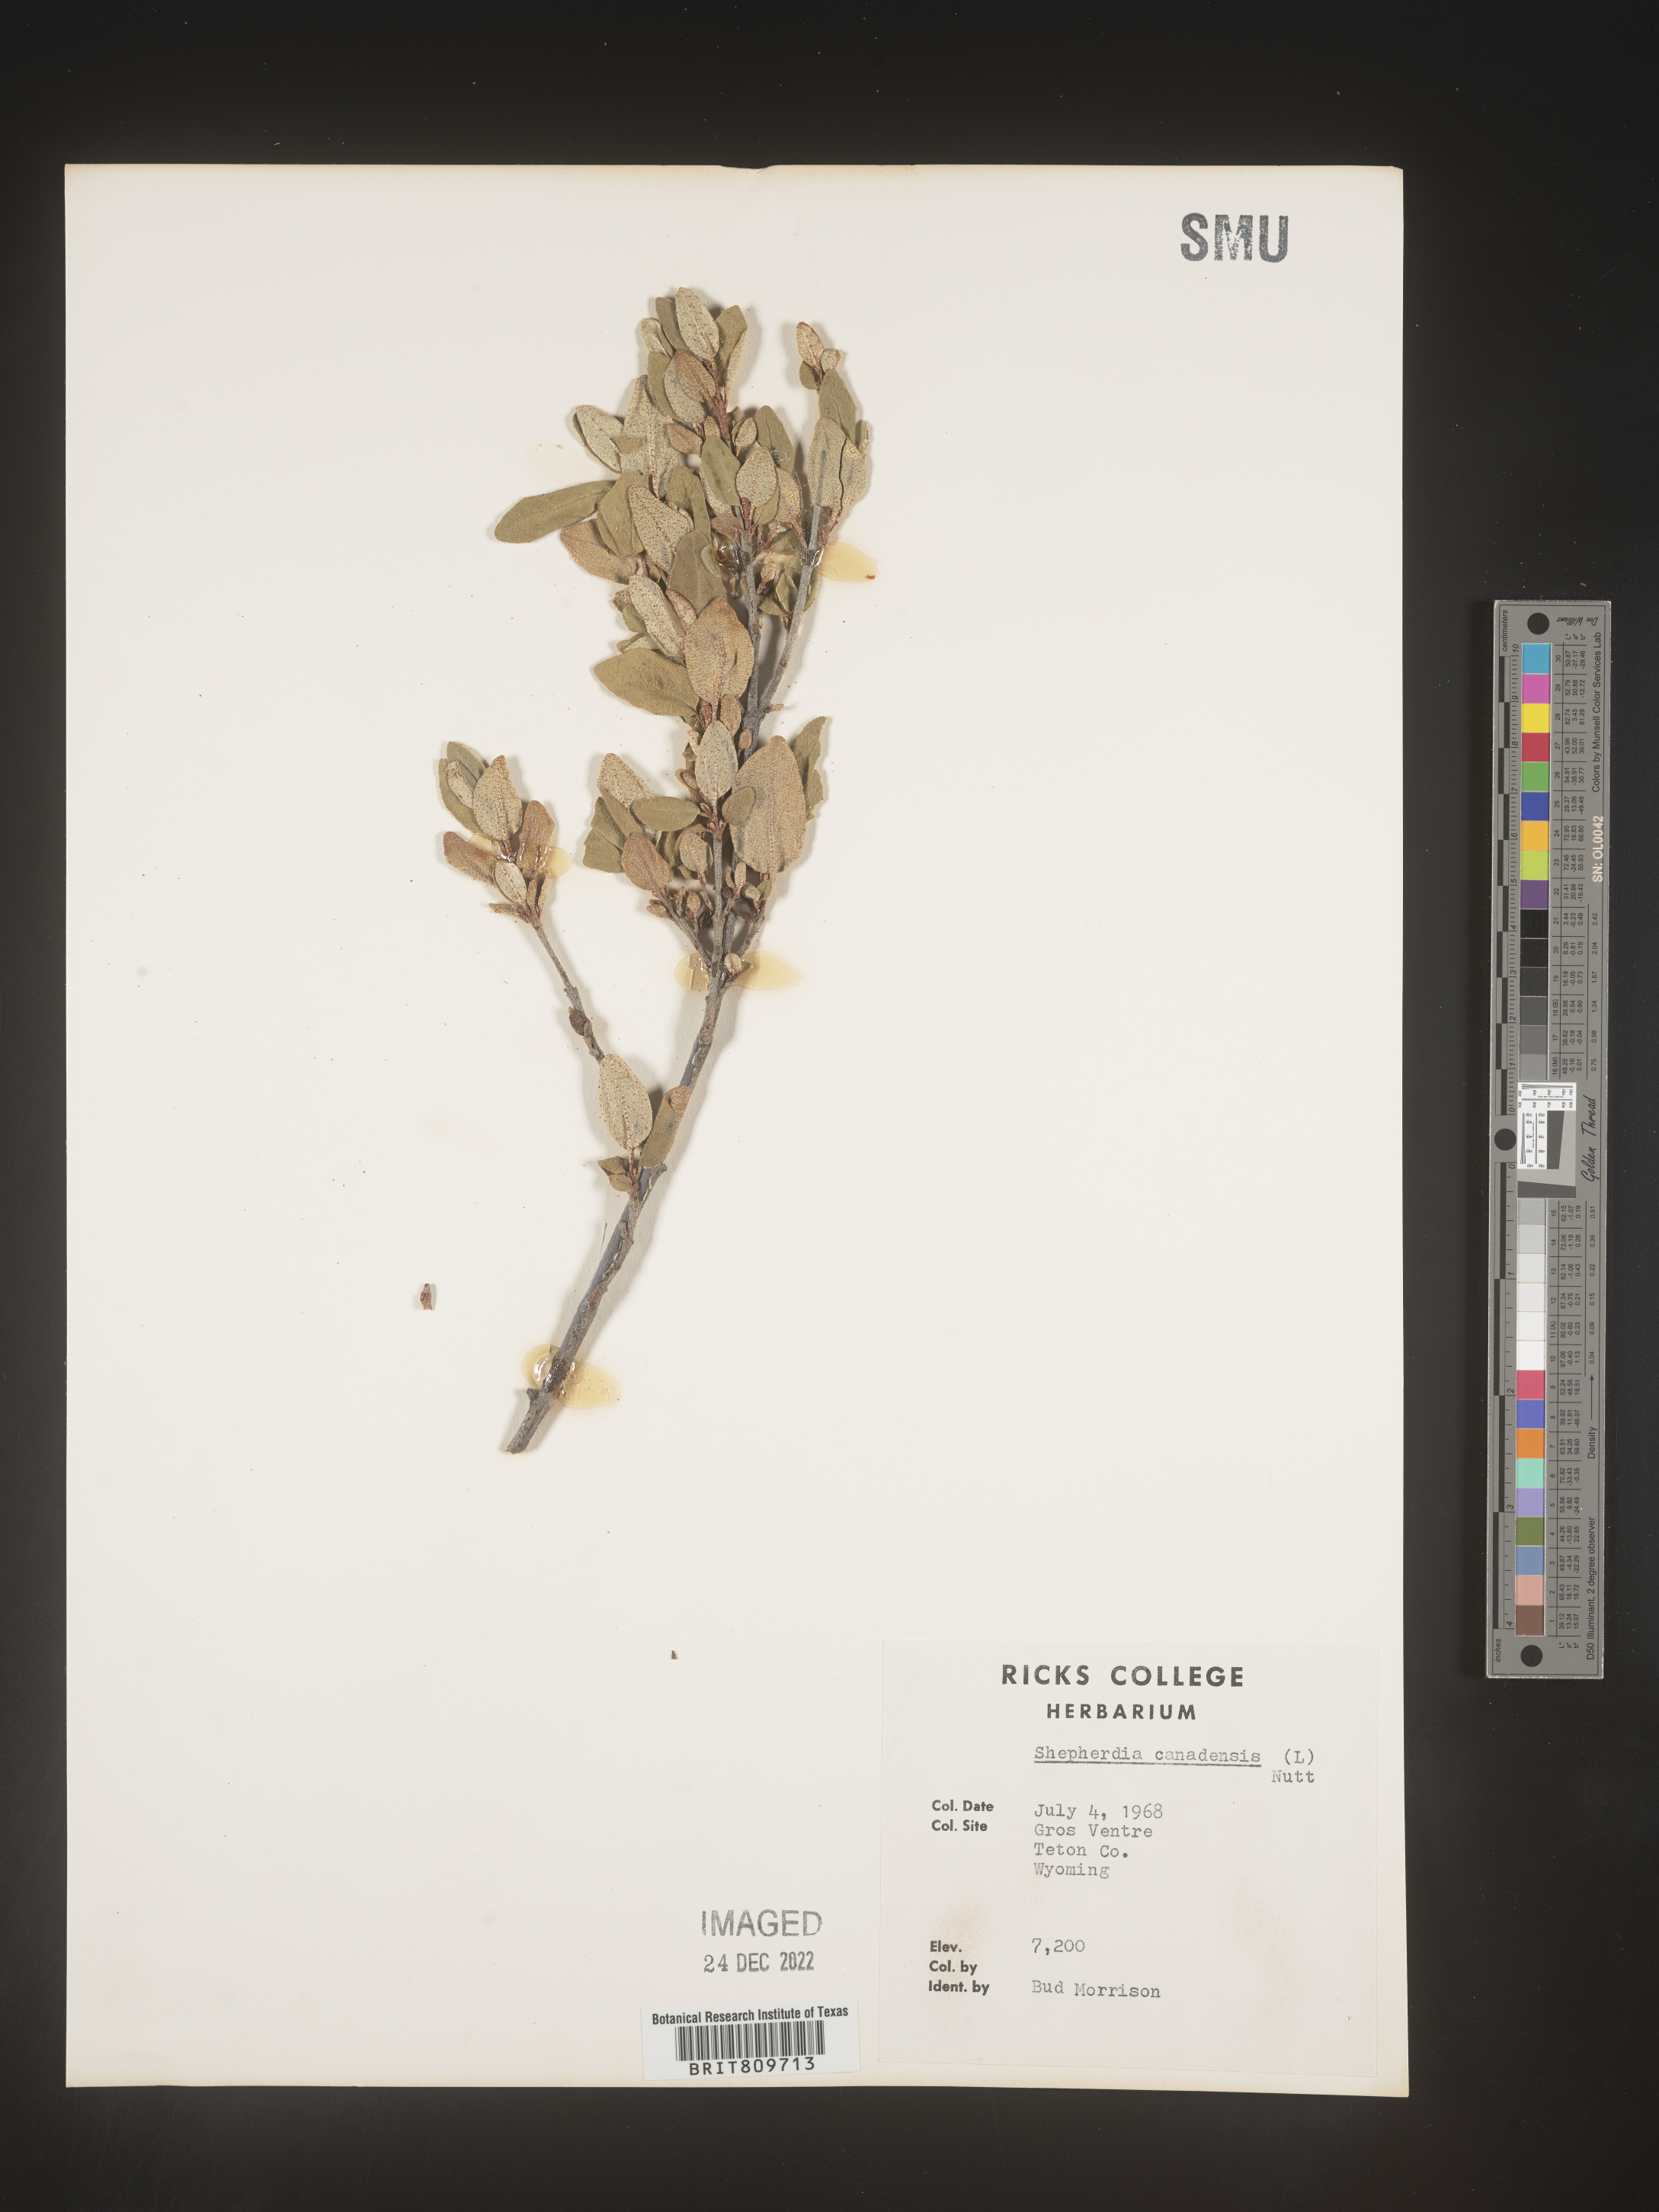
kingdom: Plantae
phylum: Tracheophyta
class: Magnoliopsida
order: Rosales
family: Elaeagnaceae
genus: Shepherdia
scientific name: Shepherdia canadensis
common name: Soapberry
